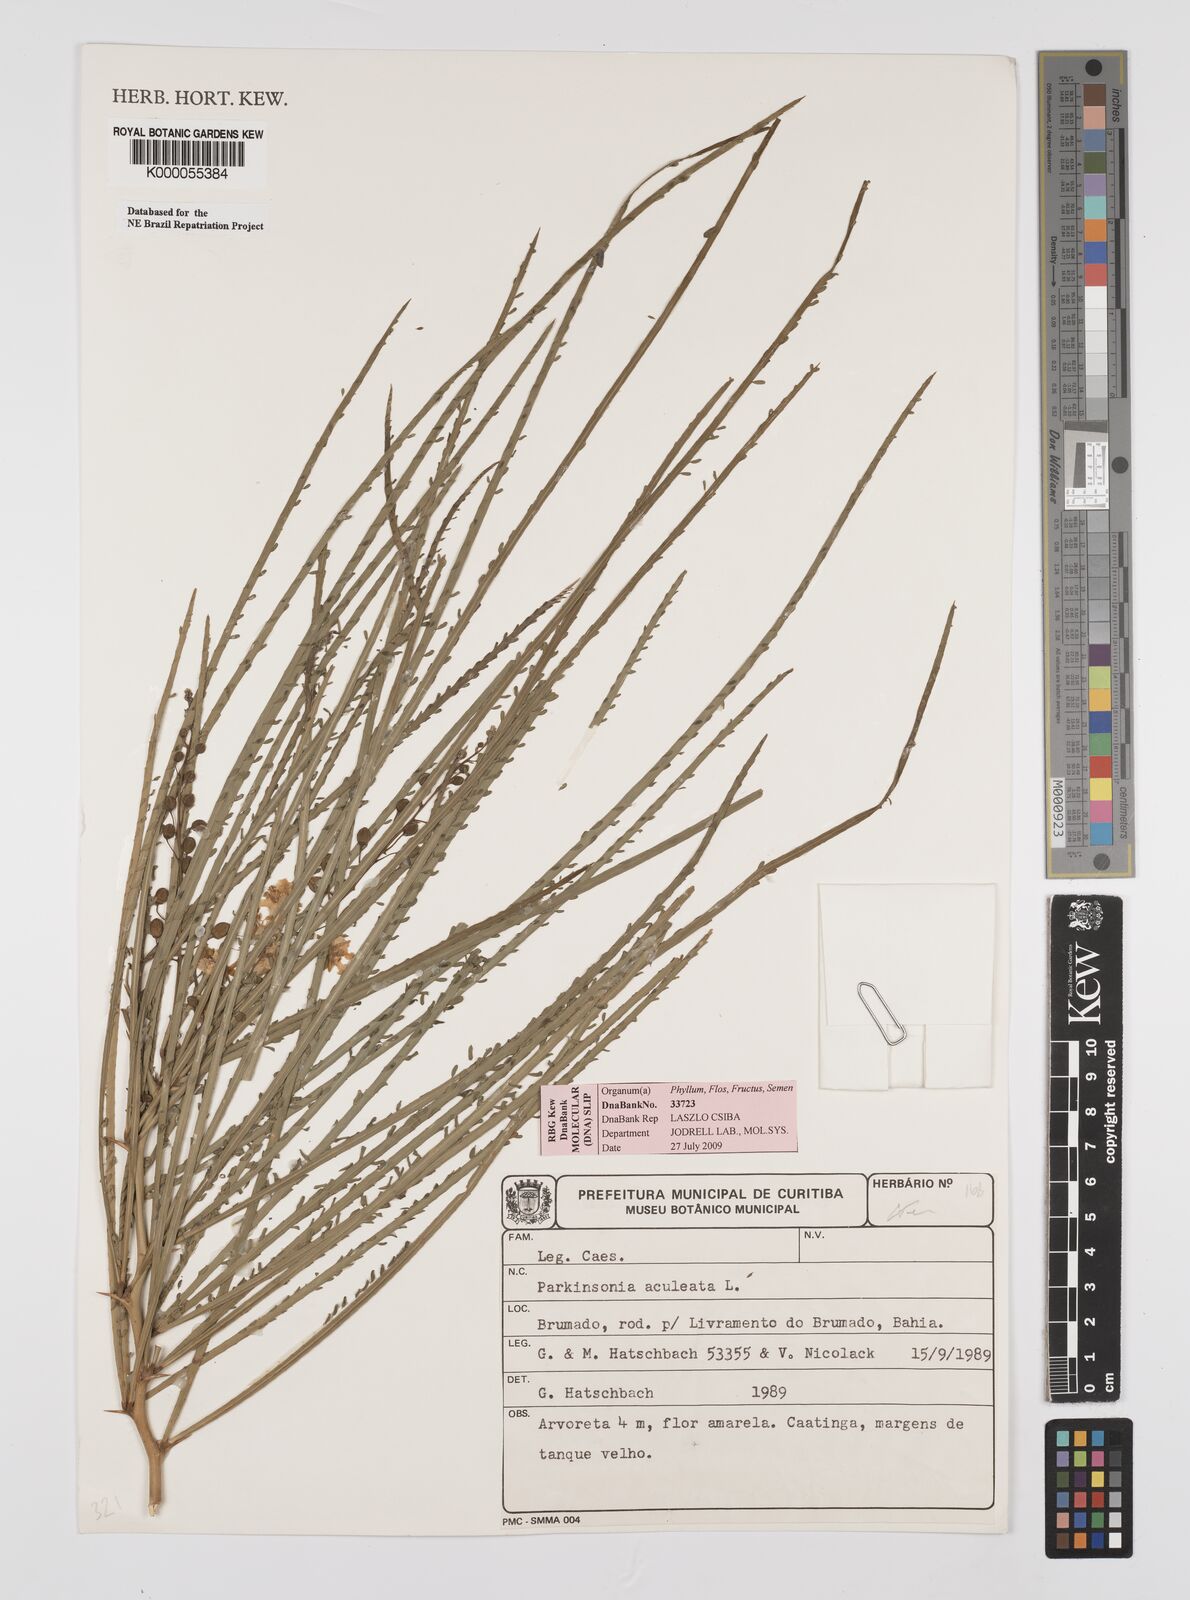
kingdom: Plantae
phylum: Tracheophyta
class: Magnoliopsida
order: Fabales
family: Fabaceae
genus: Parkinsonia
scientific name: Parkinsonia aculeata
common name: Jerusalem thorn
